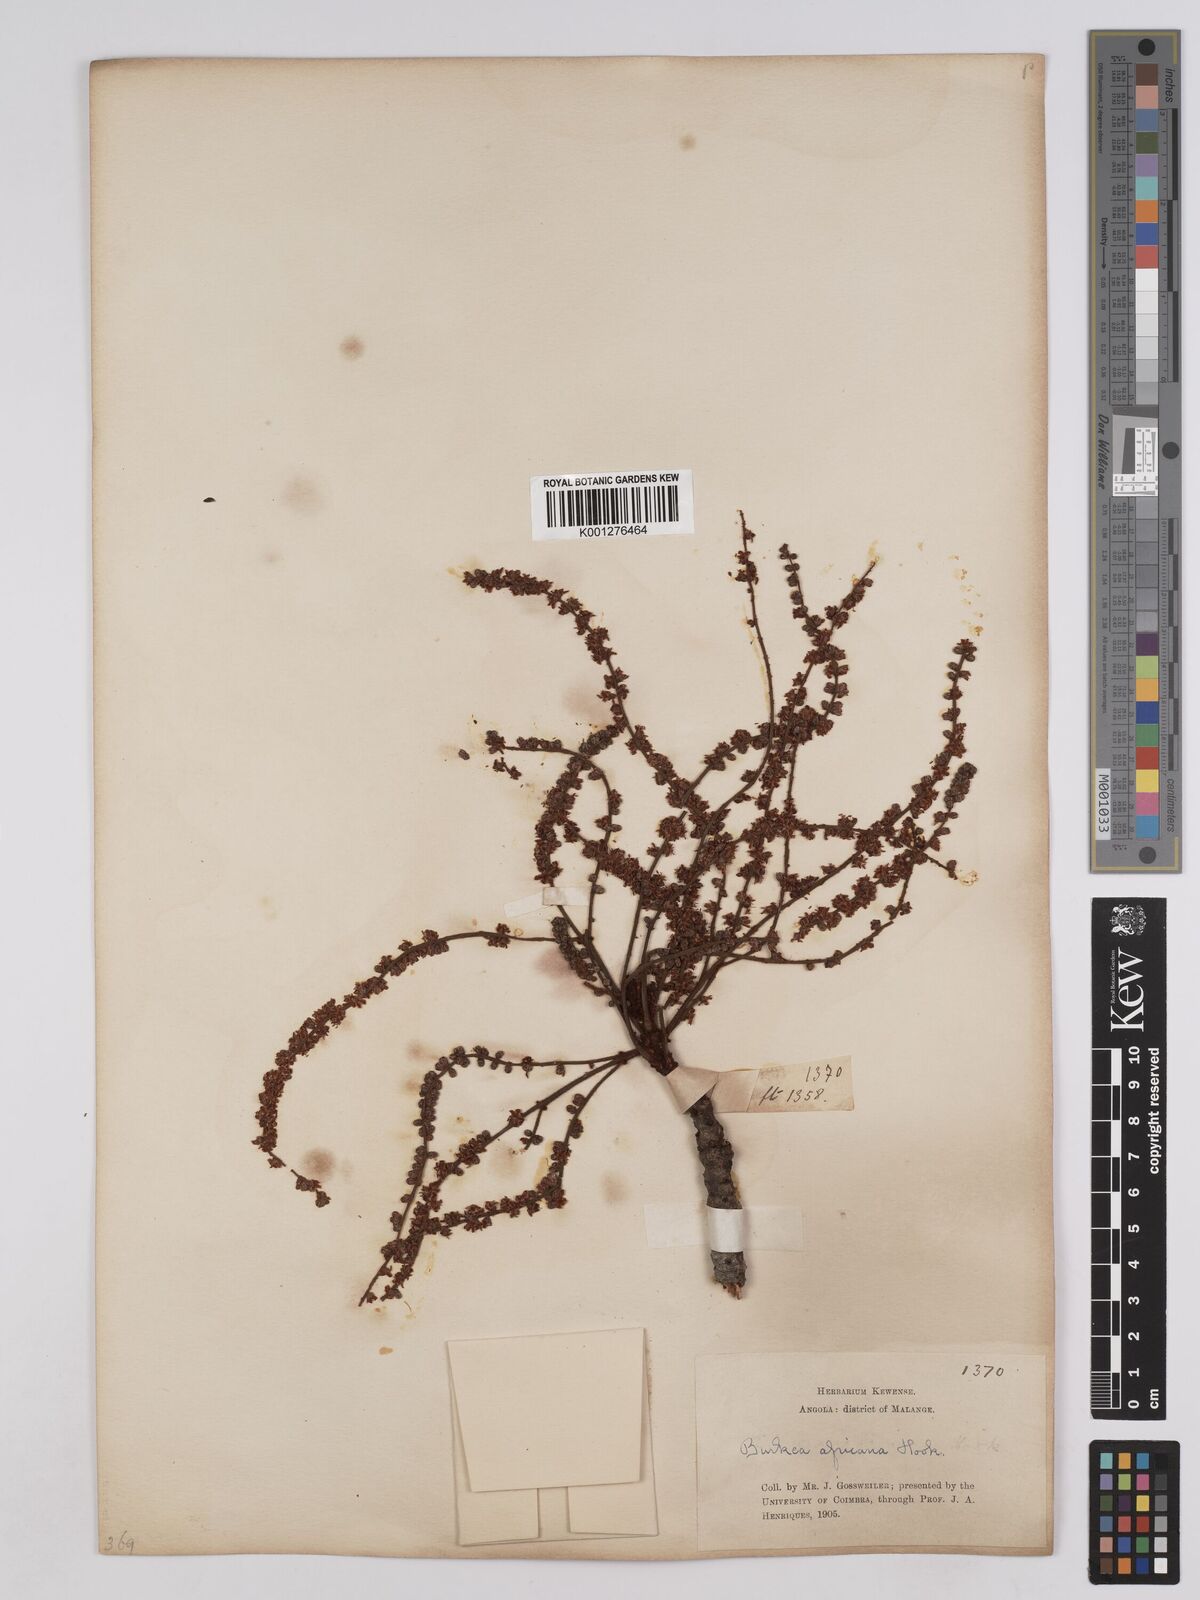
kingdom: Plantae
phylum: Tracheophyta
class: Magnoliopsida
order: Fabales
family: Fabaceae
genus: Burkea
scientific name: Burkea africana
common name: Mkalati tree
